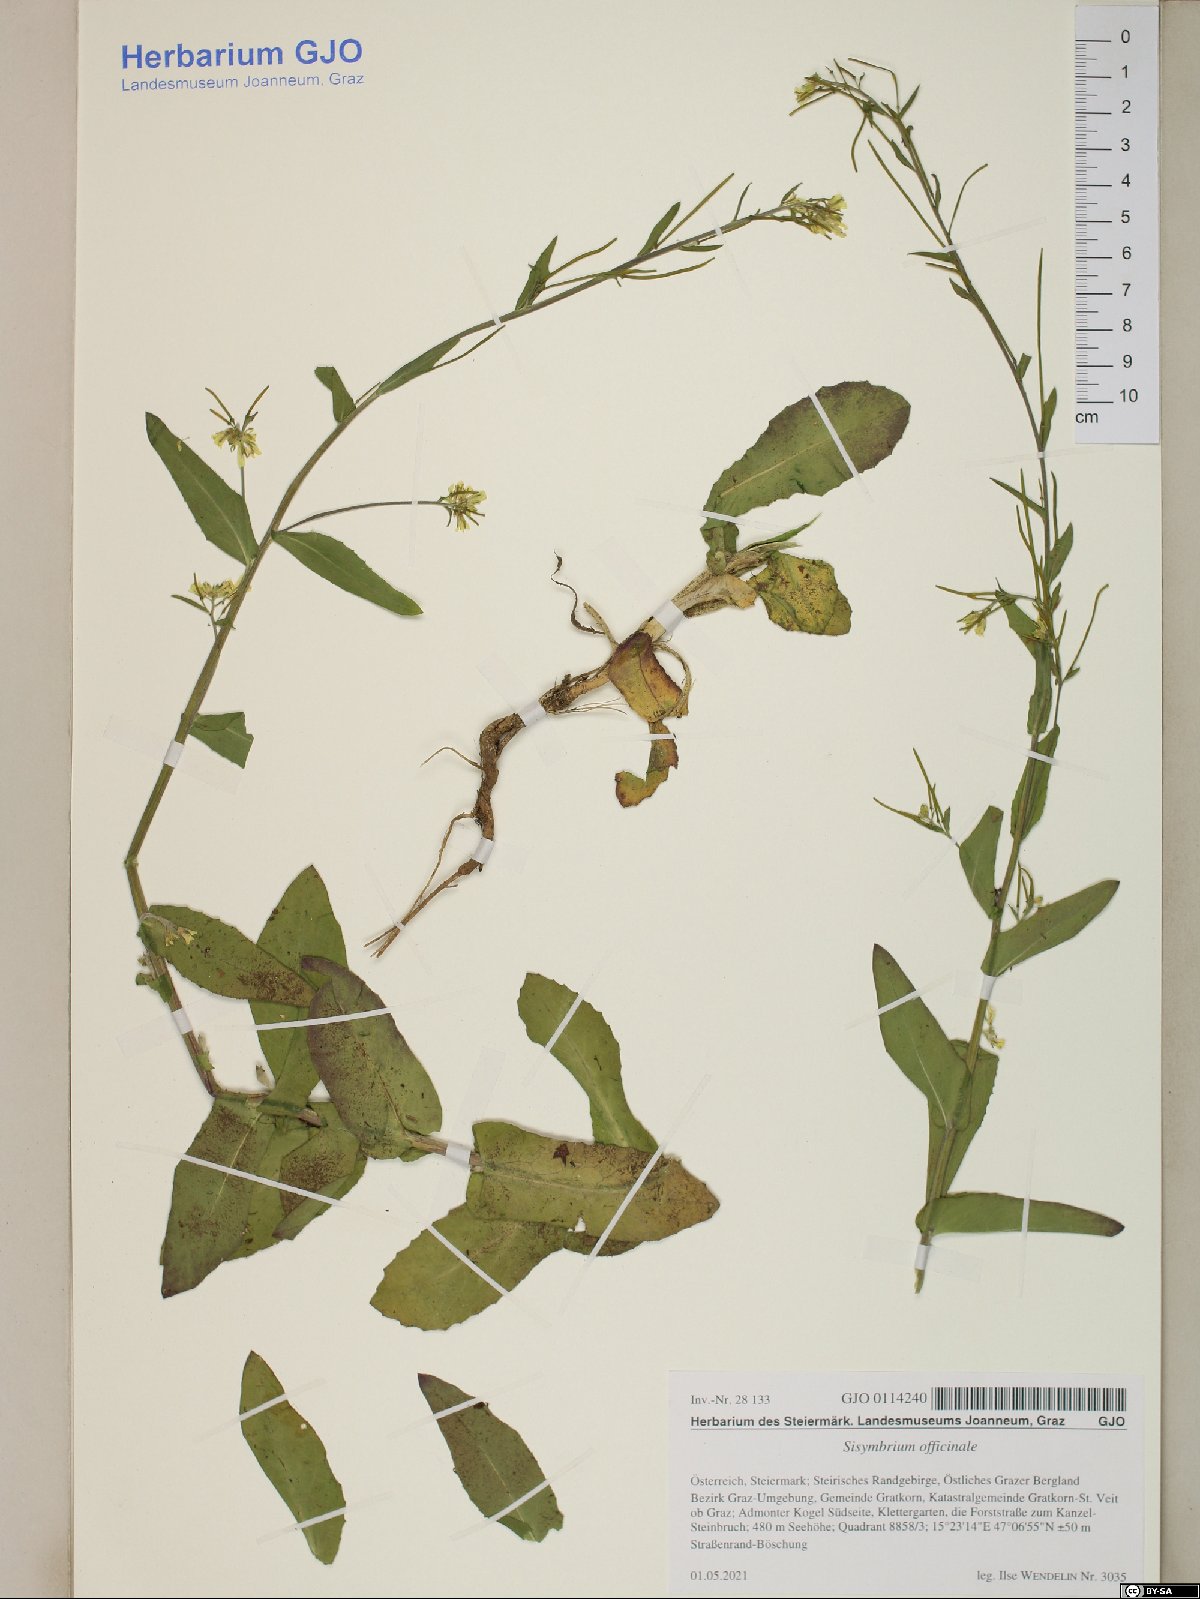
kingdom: Plantae
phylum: Tracheophyta
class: Magnoliopsida
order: Brassicales
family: Brassicaceae
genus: Sisymbrium
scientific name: Sisymbrium officinale
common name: Hedge mustard
